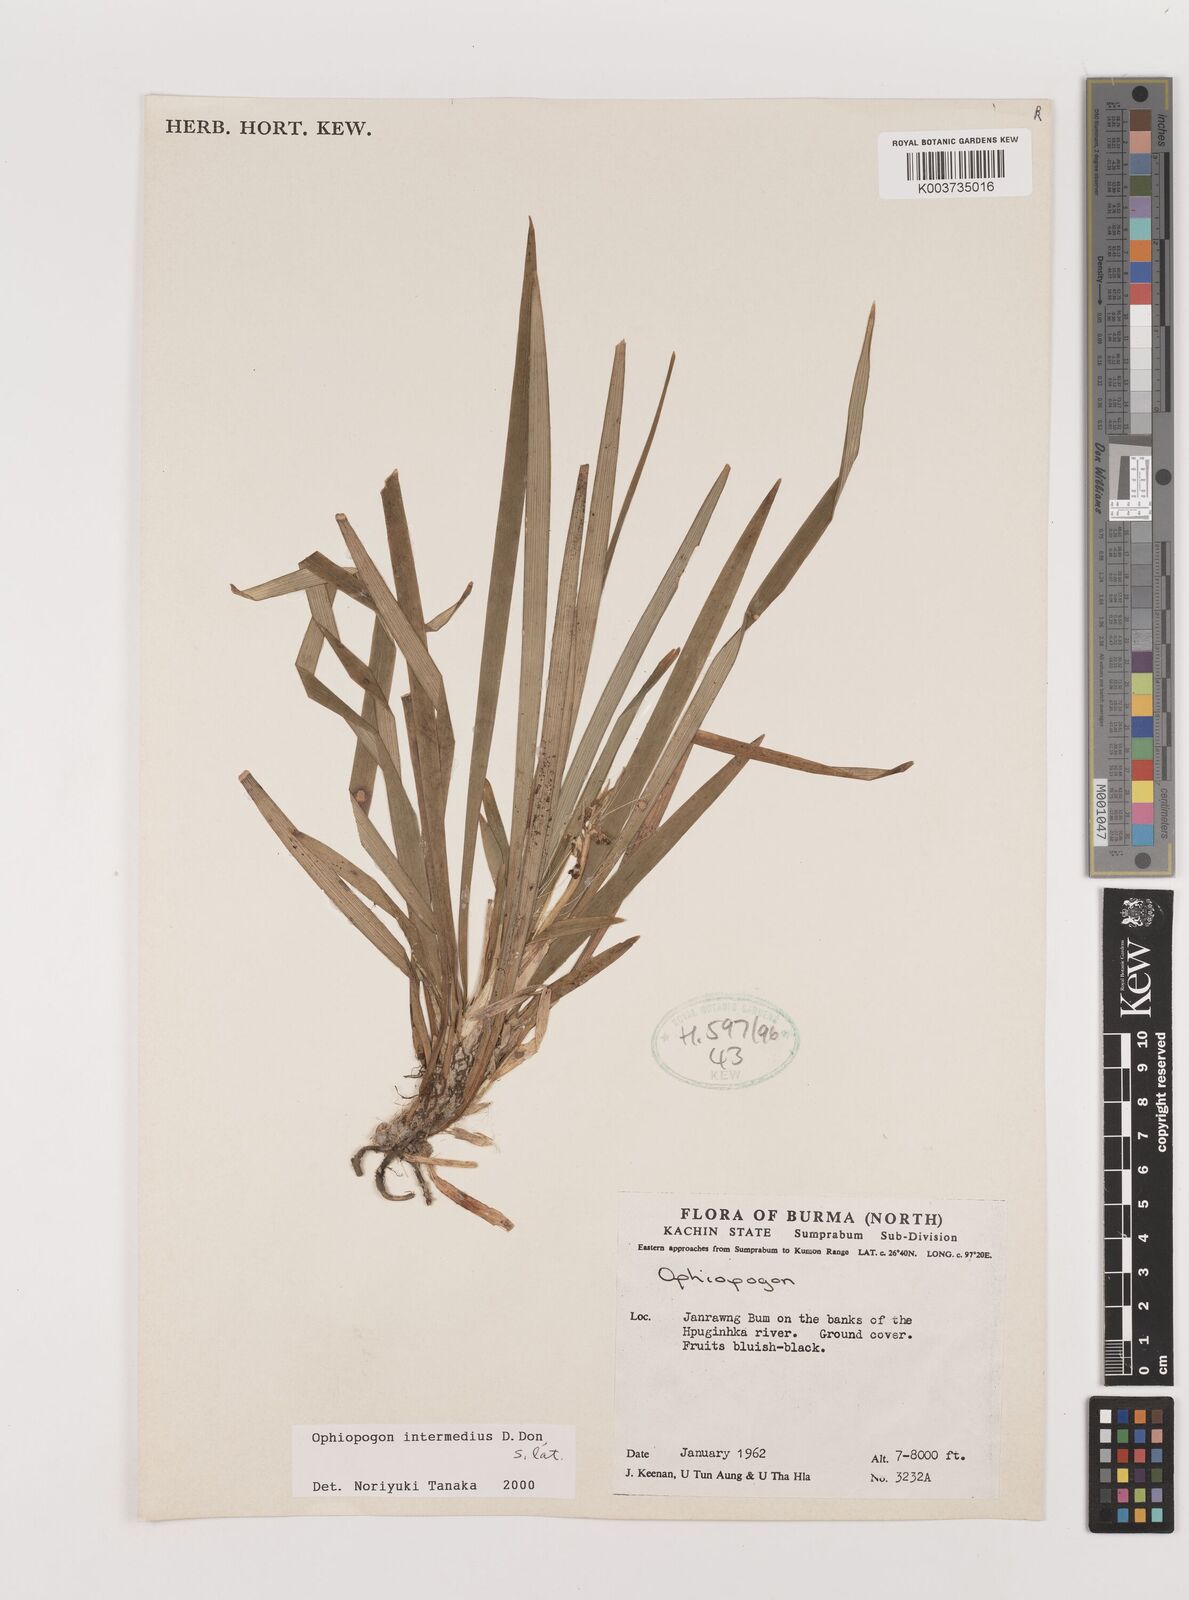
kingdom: Plantae
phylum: Tracheophyta
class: Liliopsida
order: Asparagales
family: Asparagaceae
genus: Ophiopogon
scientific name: Ophiopogon intermedius
